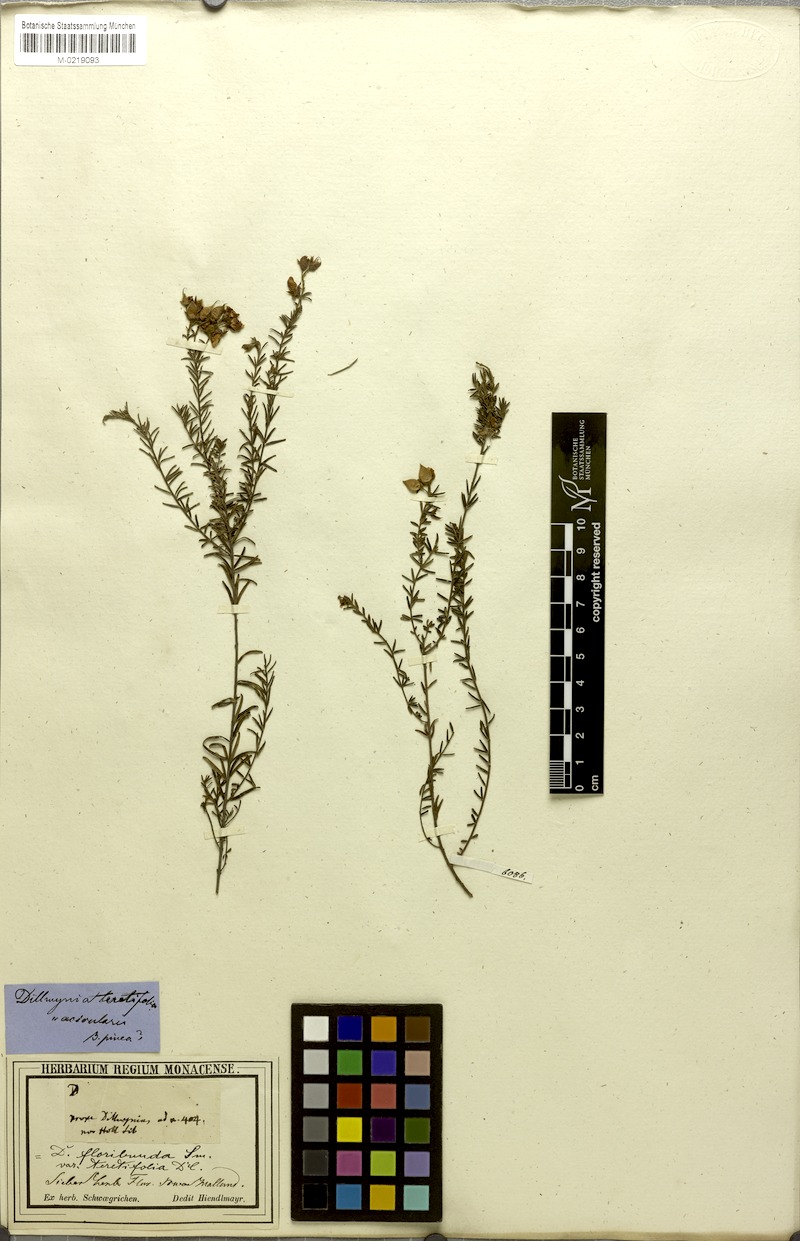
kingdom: Plantae
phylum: Tracheophyta
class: Magnoliopsida
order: Fabales
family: Fabaceae
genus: Dillwynia
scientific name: Dillwynia floribunda
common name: Eggs-and-bacon
